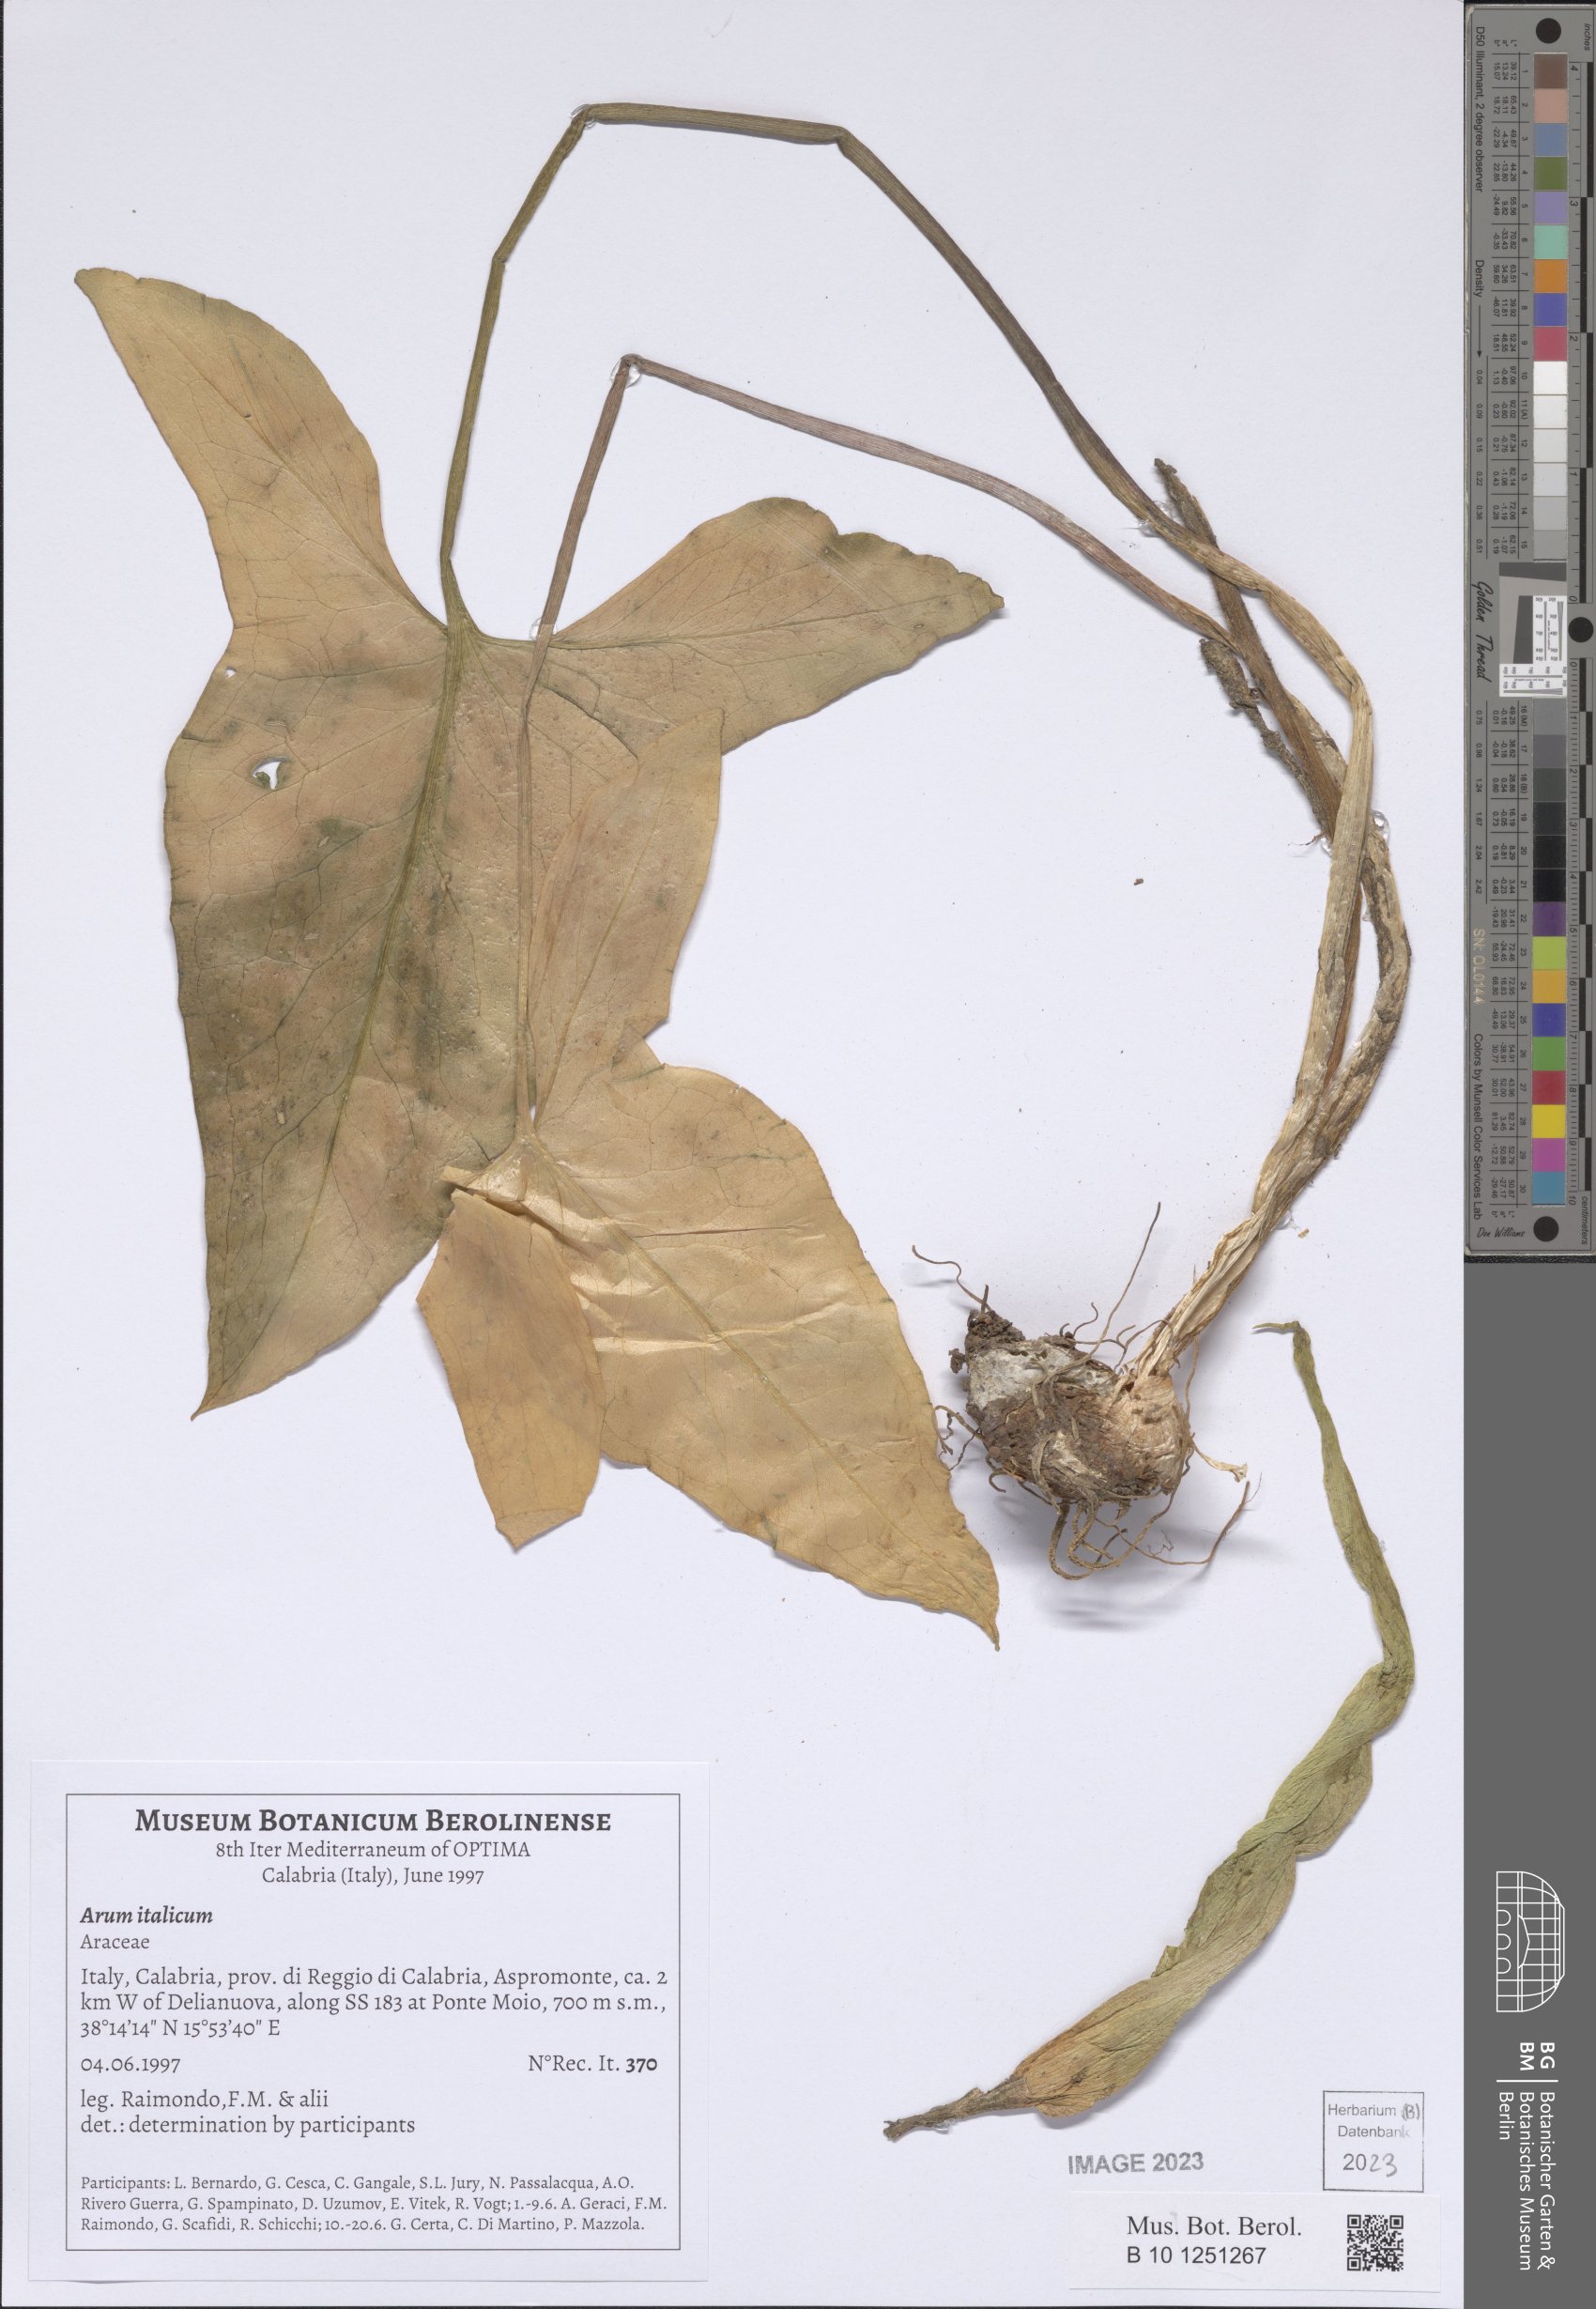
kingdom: Plantae
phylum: Tracheophyta
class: Liliopsida
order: Alismatales
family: Araceae
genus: Arum
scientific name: Arum italicum
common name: Italian lords-and-ladies
